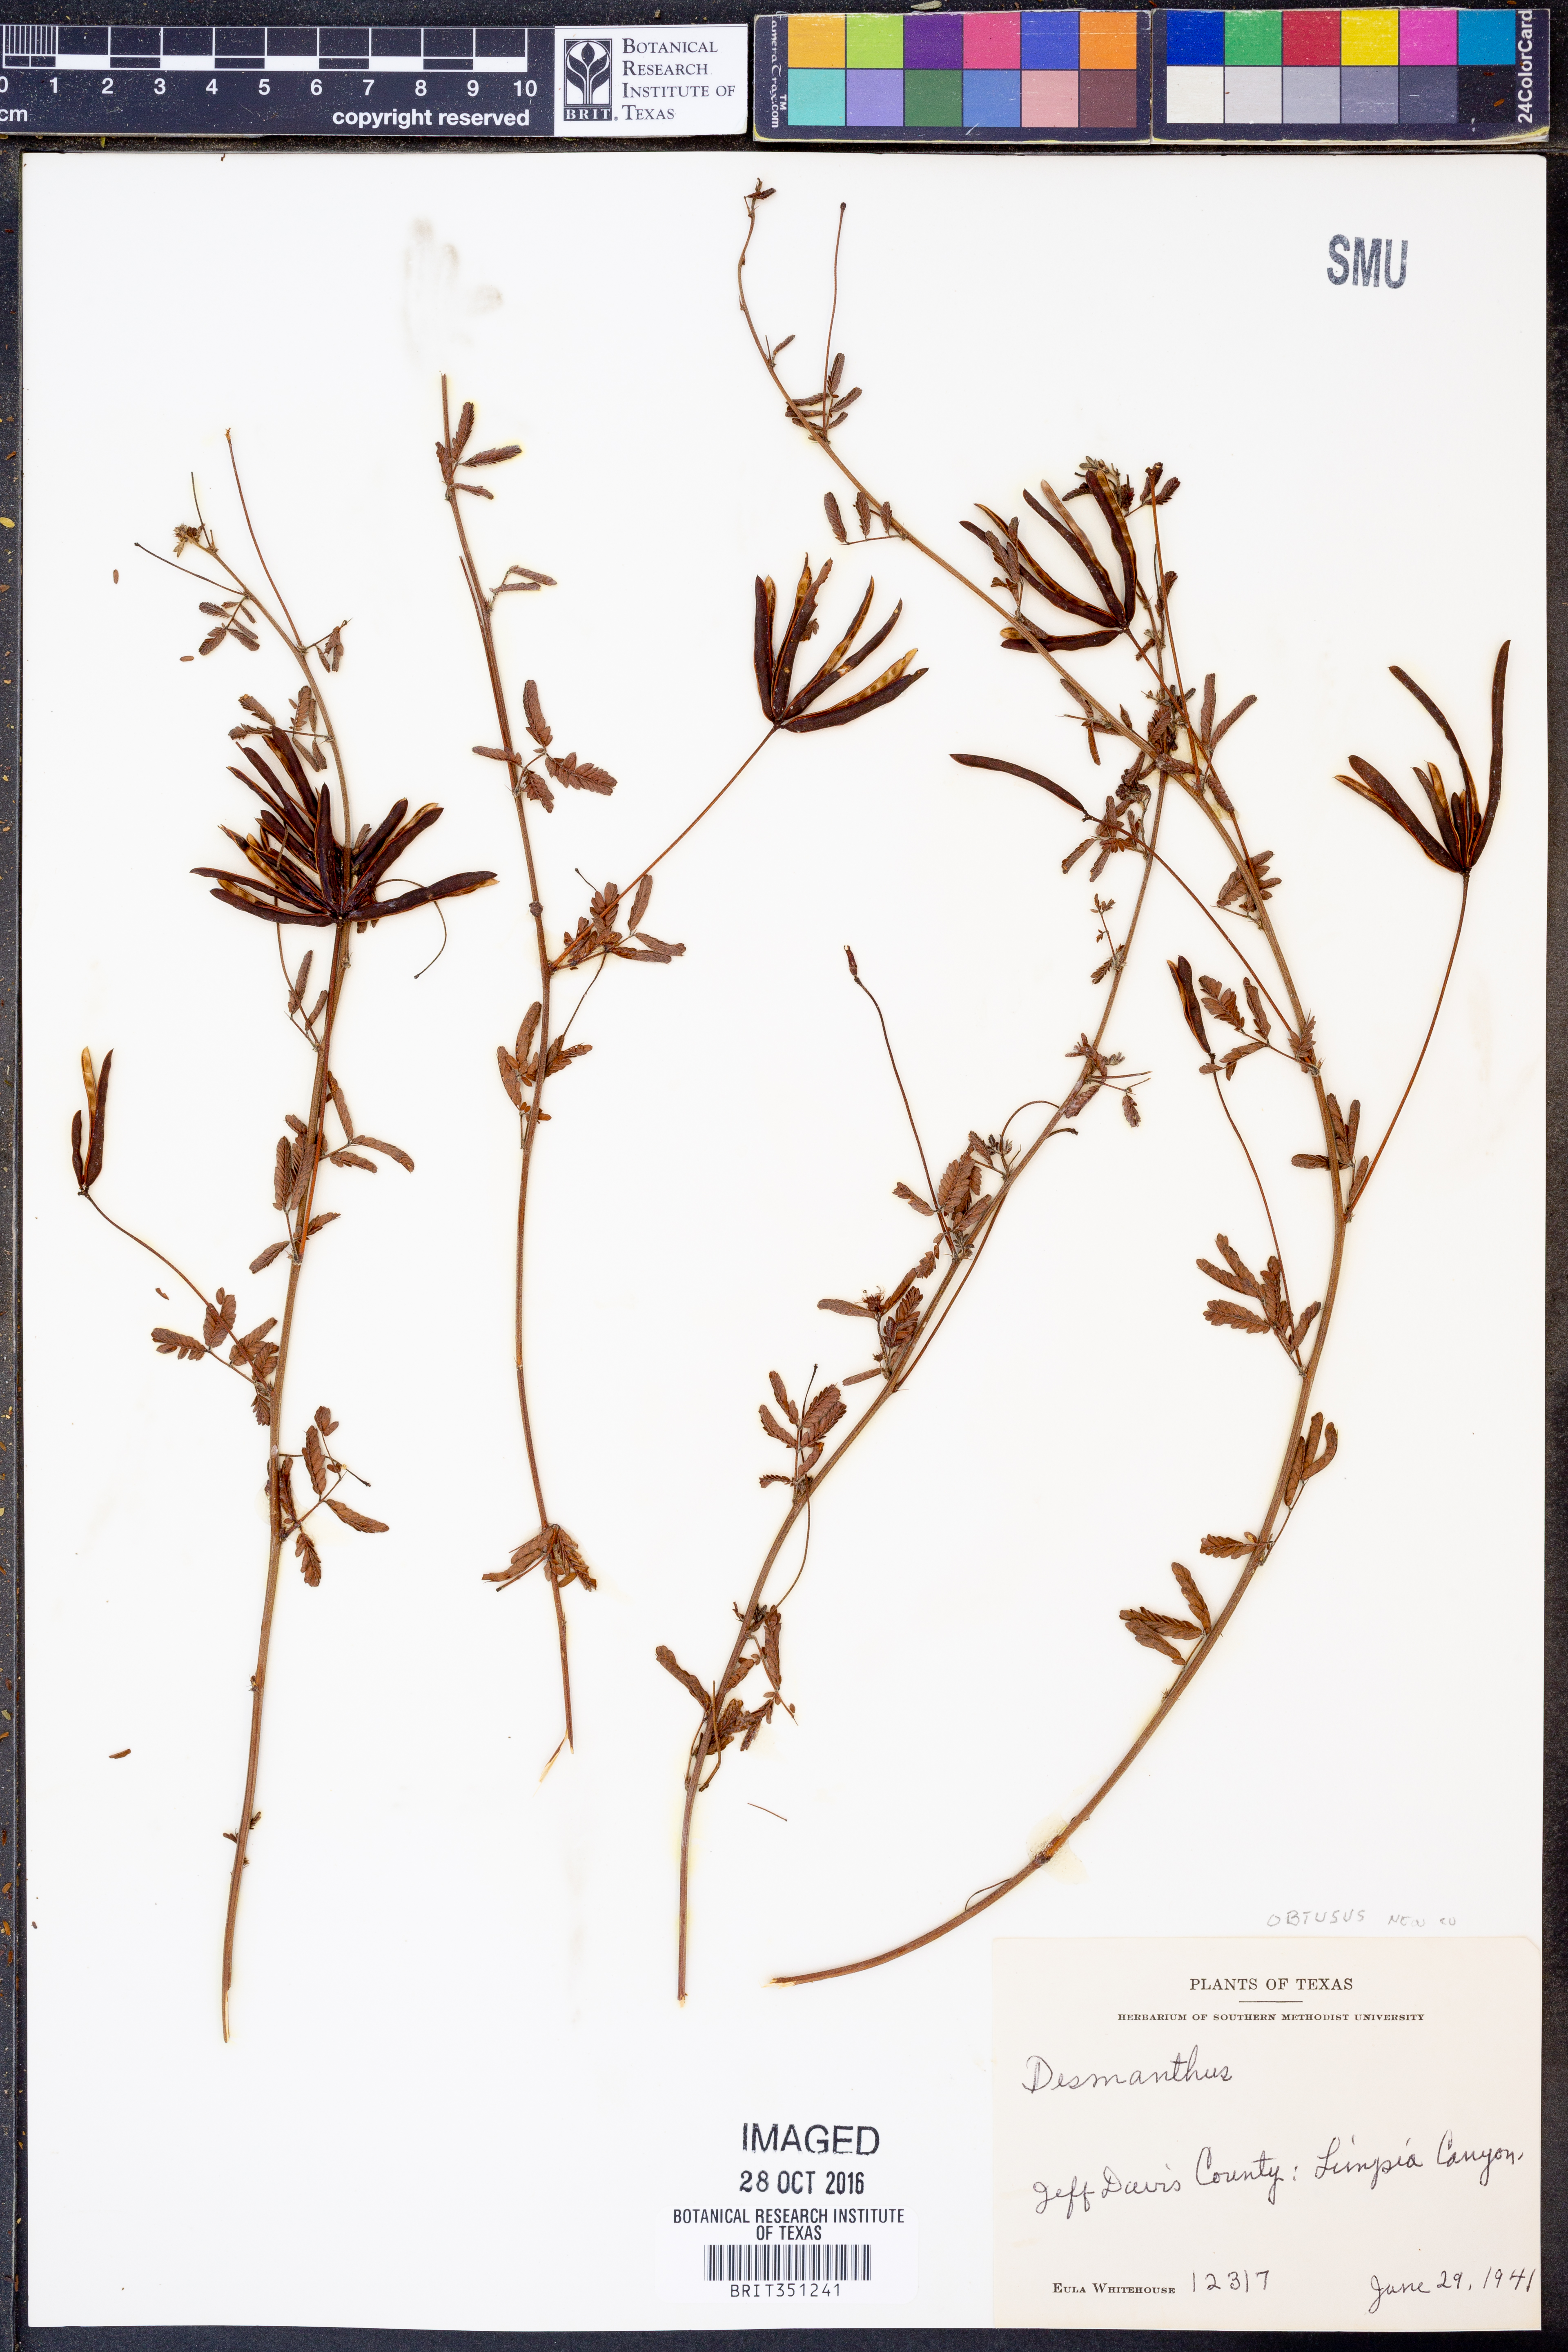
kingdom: Plantae
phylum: Tracheophyta
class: Magnoliopsida
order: Fabales
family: Fabaceae
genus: Desmanthus
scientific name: Desmanthus obtusus
